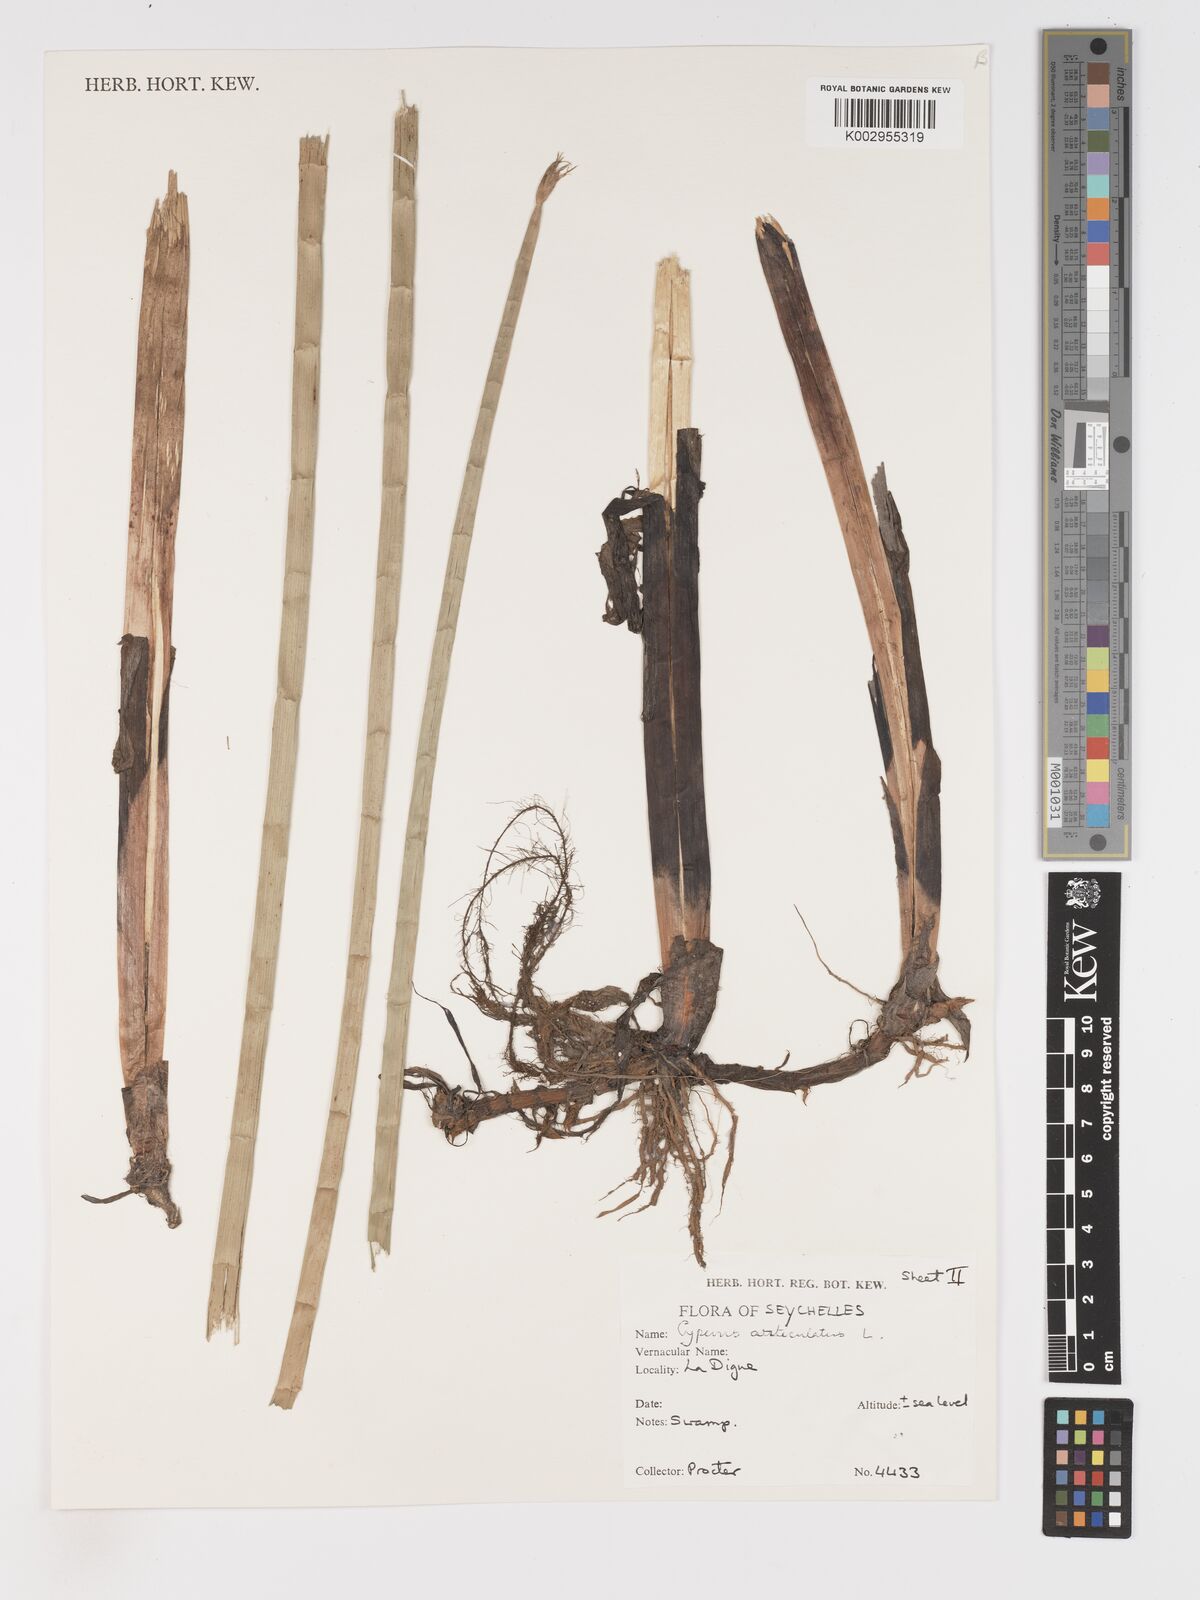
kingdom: Plantae
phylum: Tracheophyta
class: Liliopsida
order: Poales
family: Cyperaceae
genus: Cyperus
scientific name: Cyperus articulatus
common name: Jointed flatsedge
